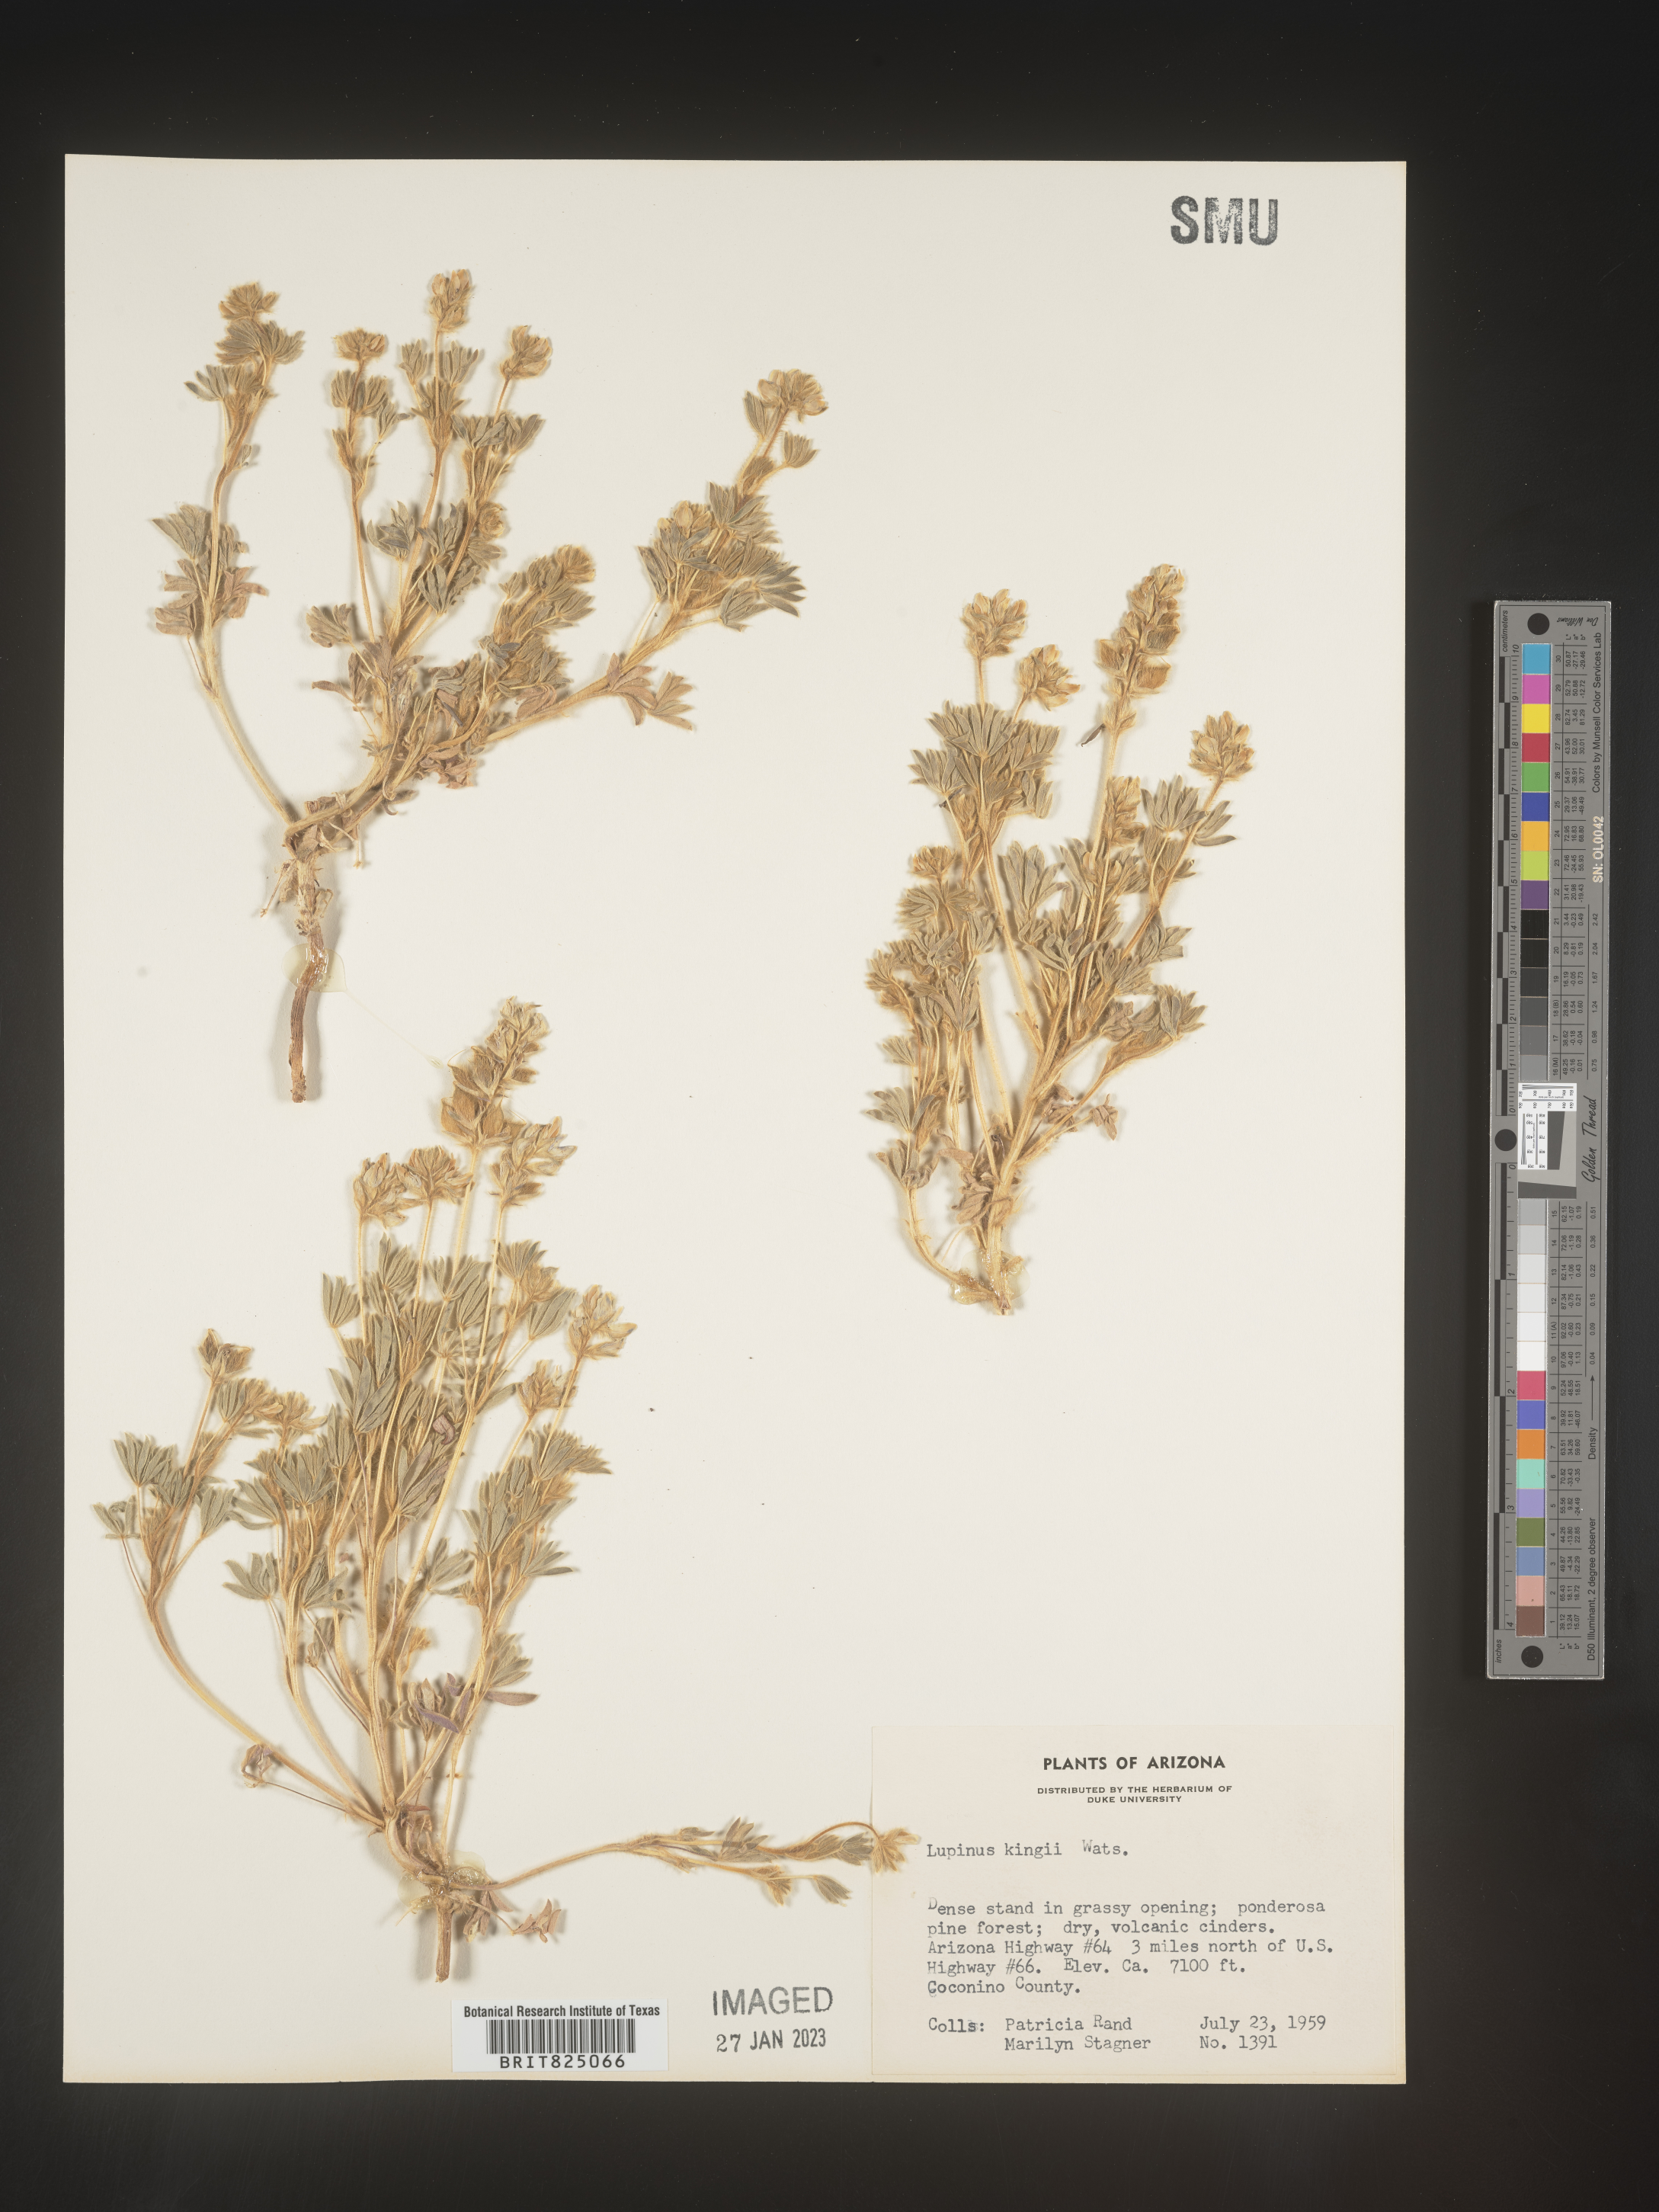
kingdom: Plantae
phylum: Tracheophyta
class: Magnoliopsida
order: Fabales
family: Fabaceae
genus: Lupinus
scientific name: Lupinus
